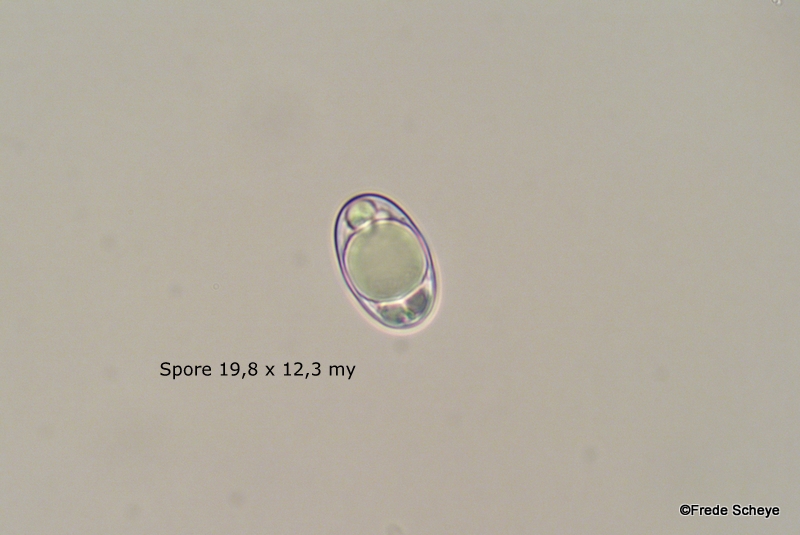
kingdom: Fungi
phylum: Ascomycota
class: Pezizomycetes
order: Pezizales
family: Helvellaceae
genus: Helvella
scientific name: Helvella crispa
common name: kruset foldhat
